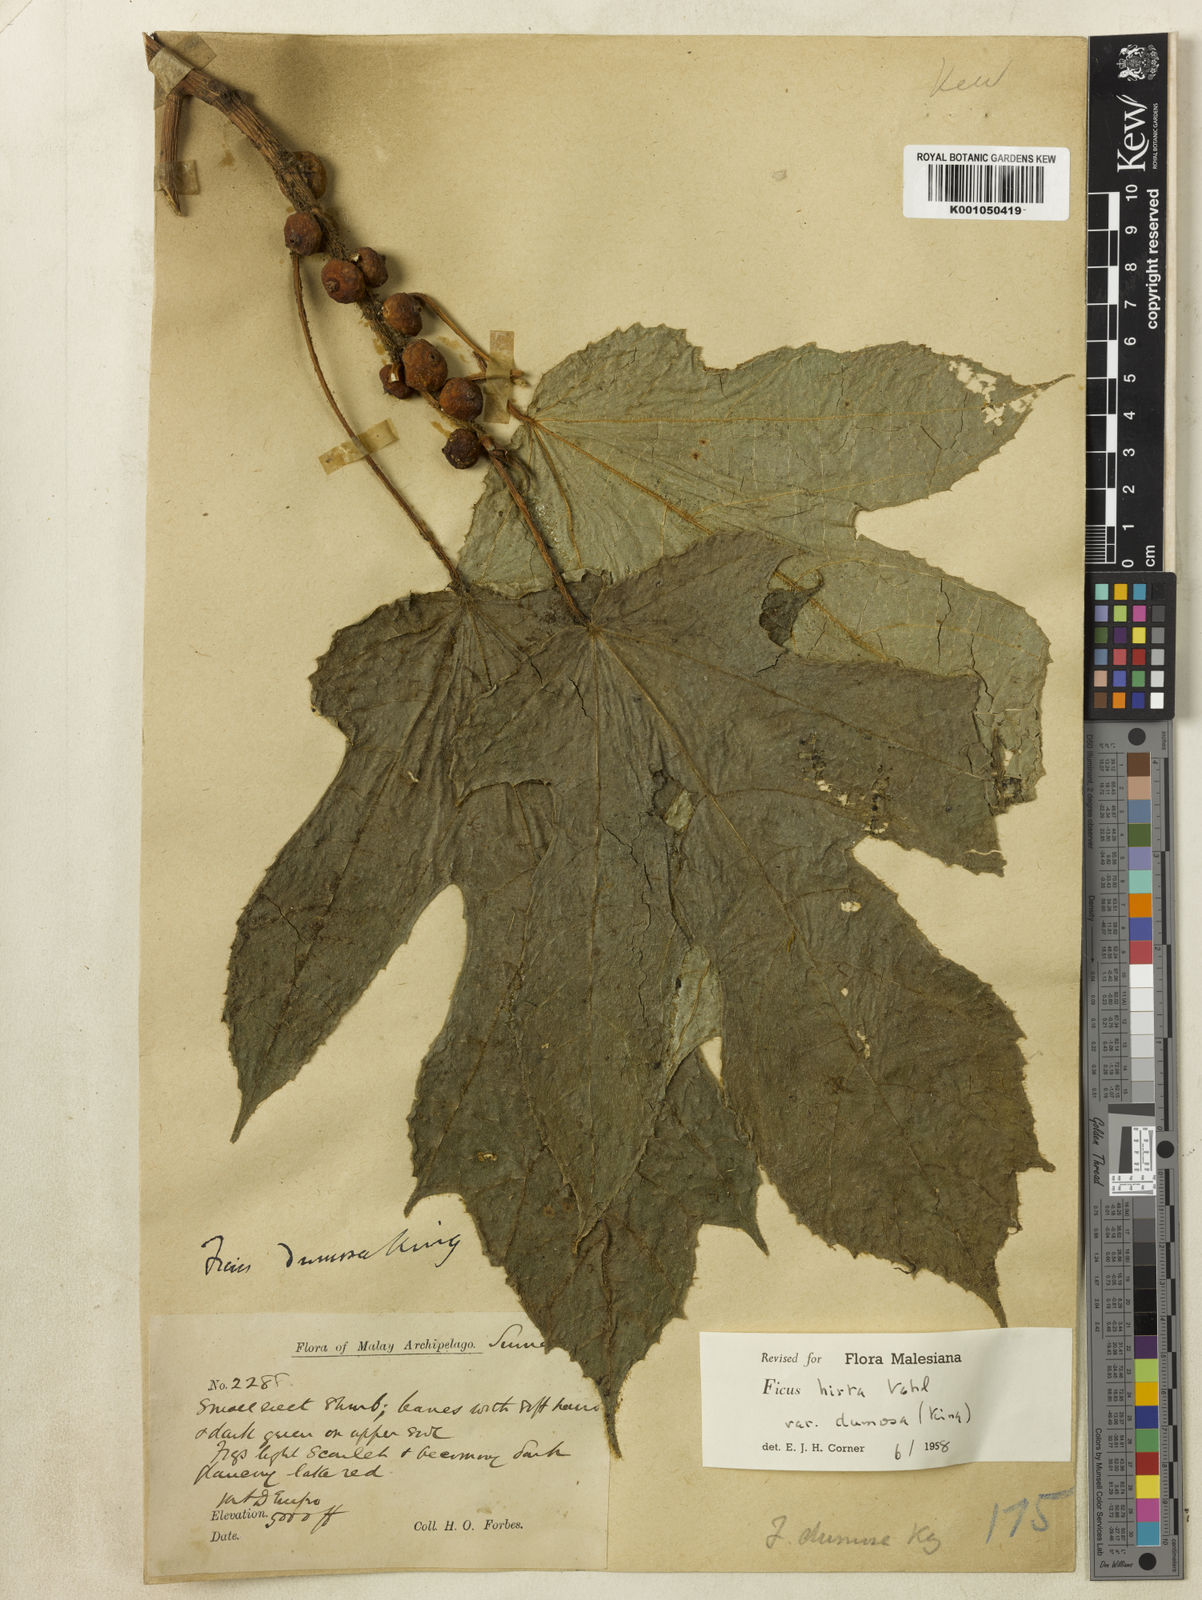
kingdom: Plantae
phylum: Tracheophyta
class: Magnoliopsida
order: Rosales
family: Moraceae
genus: Ficus
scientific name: Ficus simplicissima
